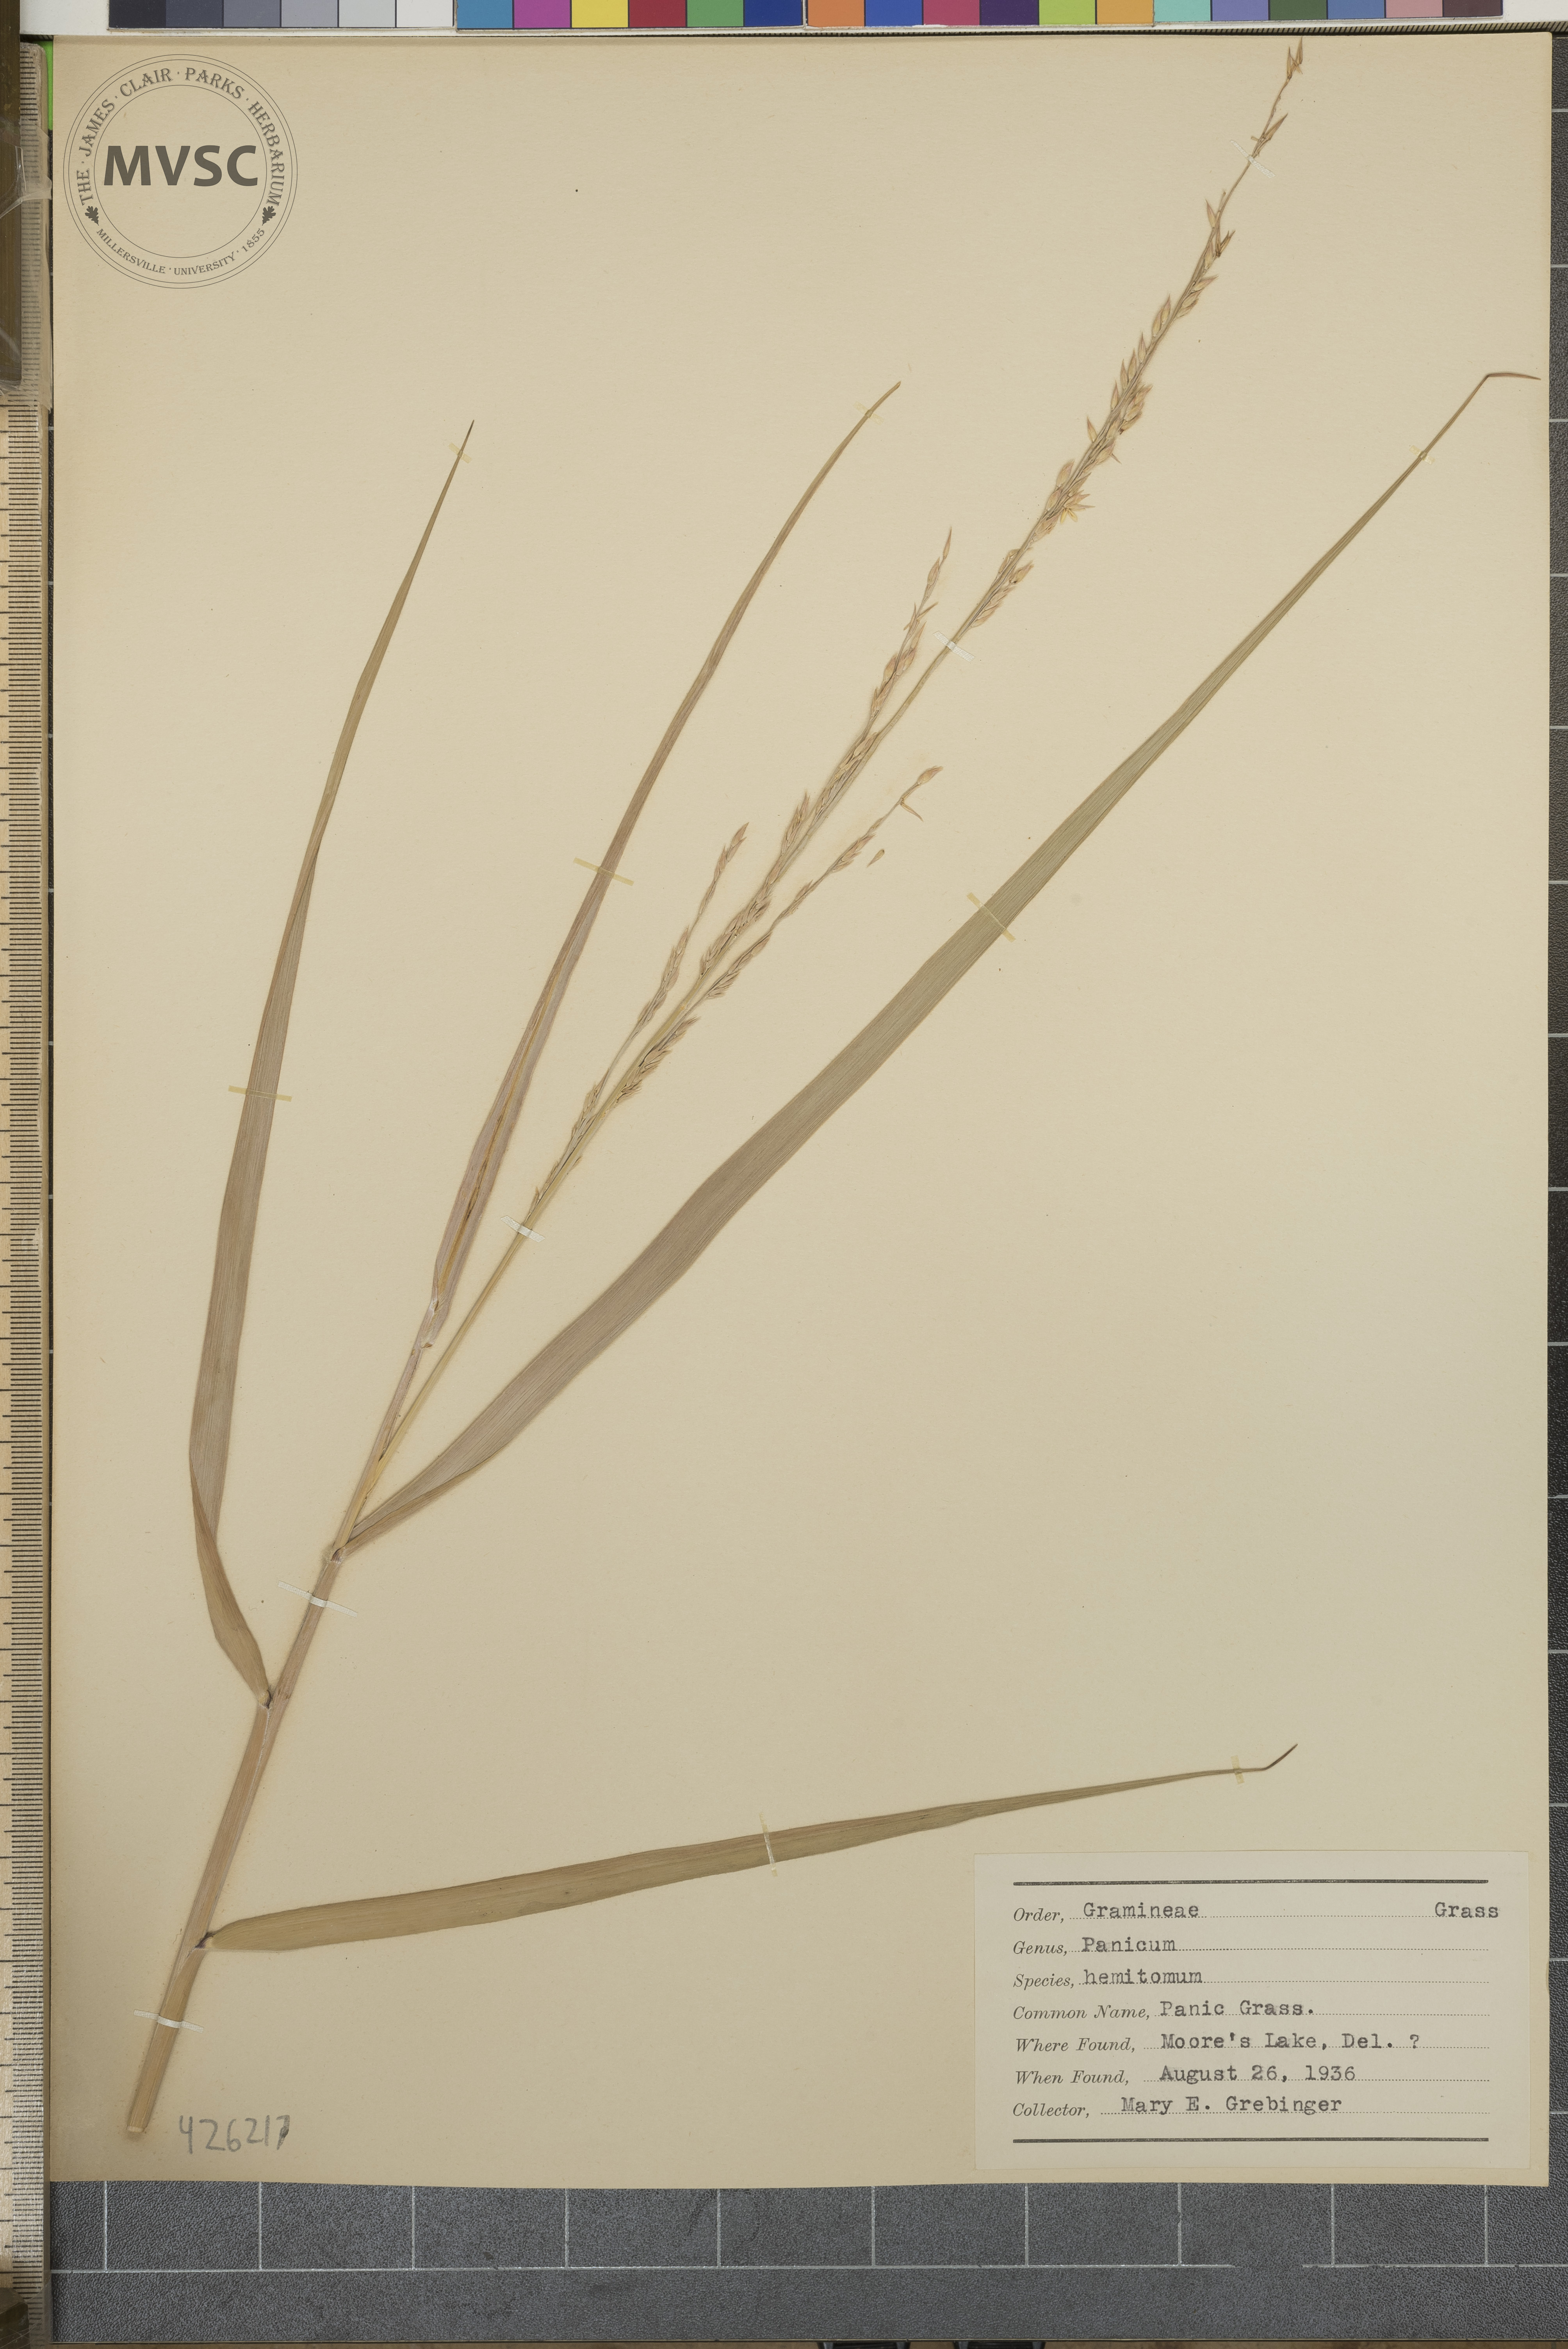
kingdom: Plantae
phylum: Tracheophyta
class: Liliopsida
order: Poales
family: Poaceae
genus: Panicum
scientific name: Panicum hemitomon
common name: Panic Grass
